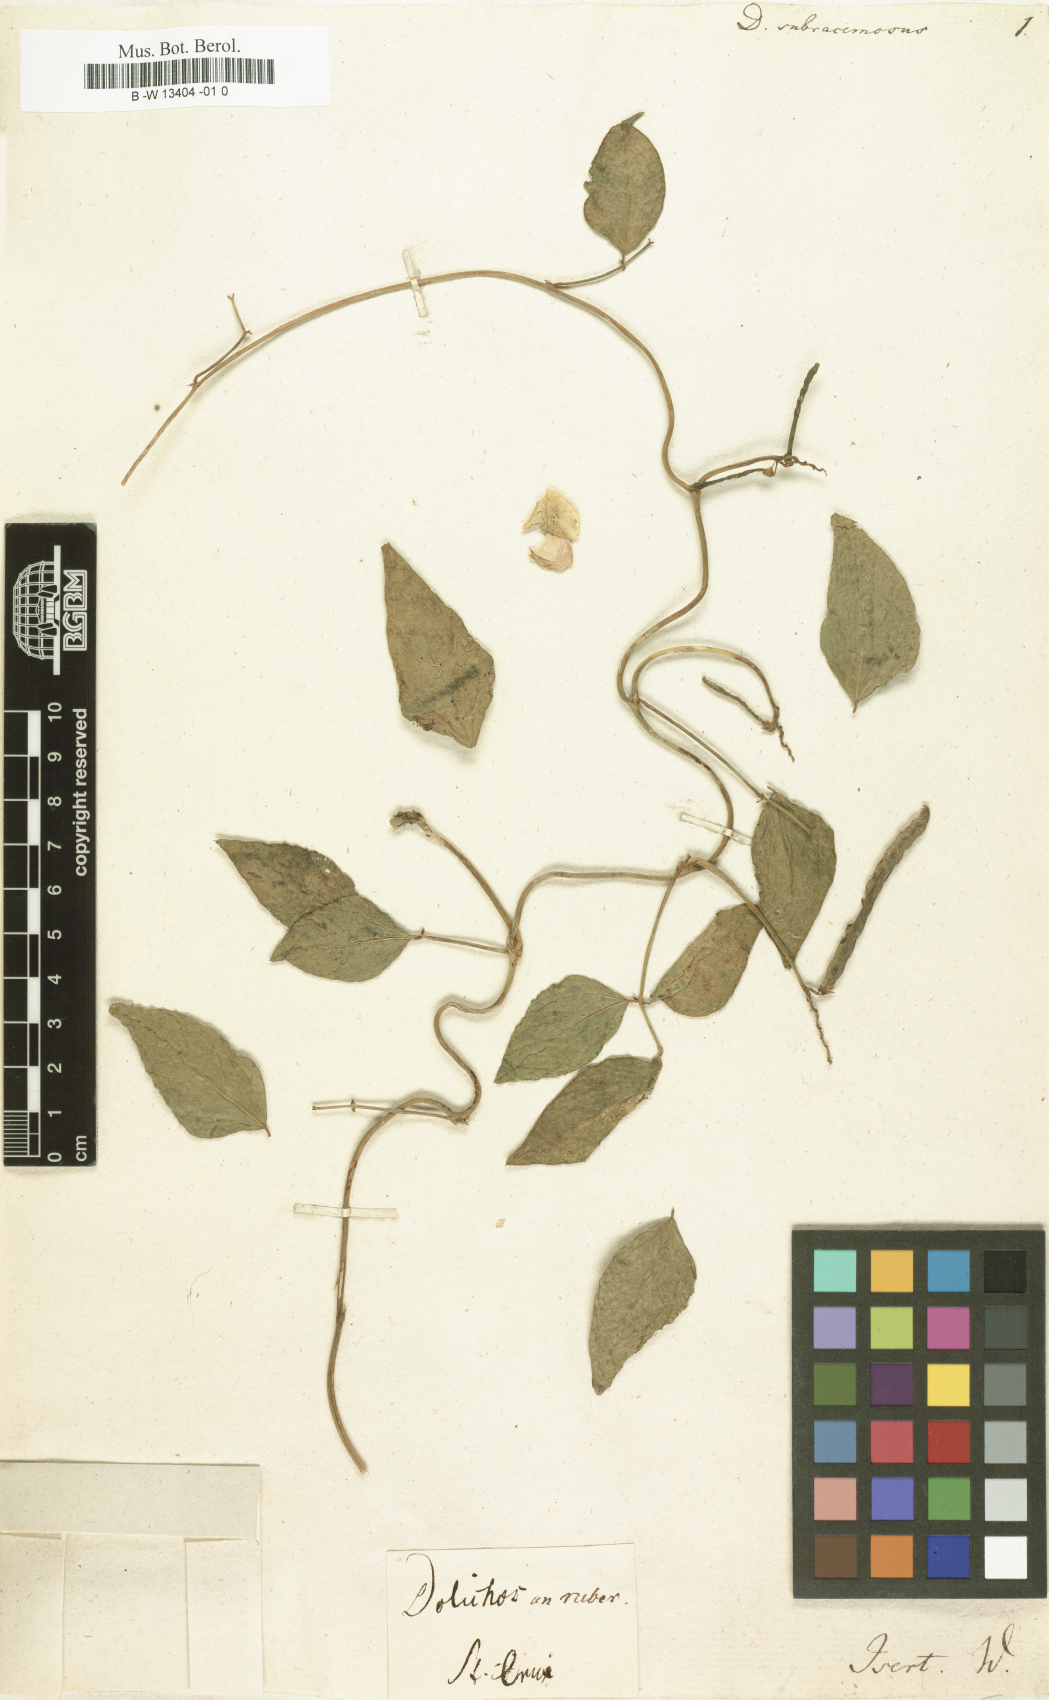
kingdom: Plantae
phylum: Tracheophyta
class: Magnoliopsida
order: Fabales
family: Fabaceae
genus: Vigna
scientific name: Vigna unguiculata
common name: Cowpea
